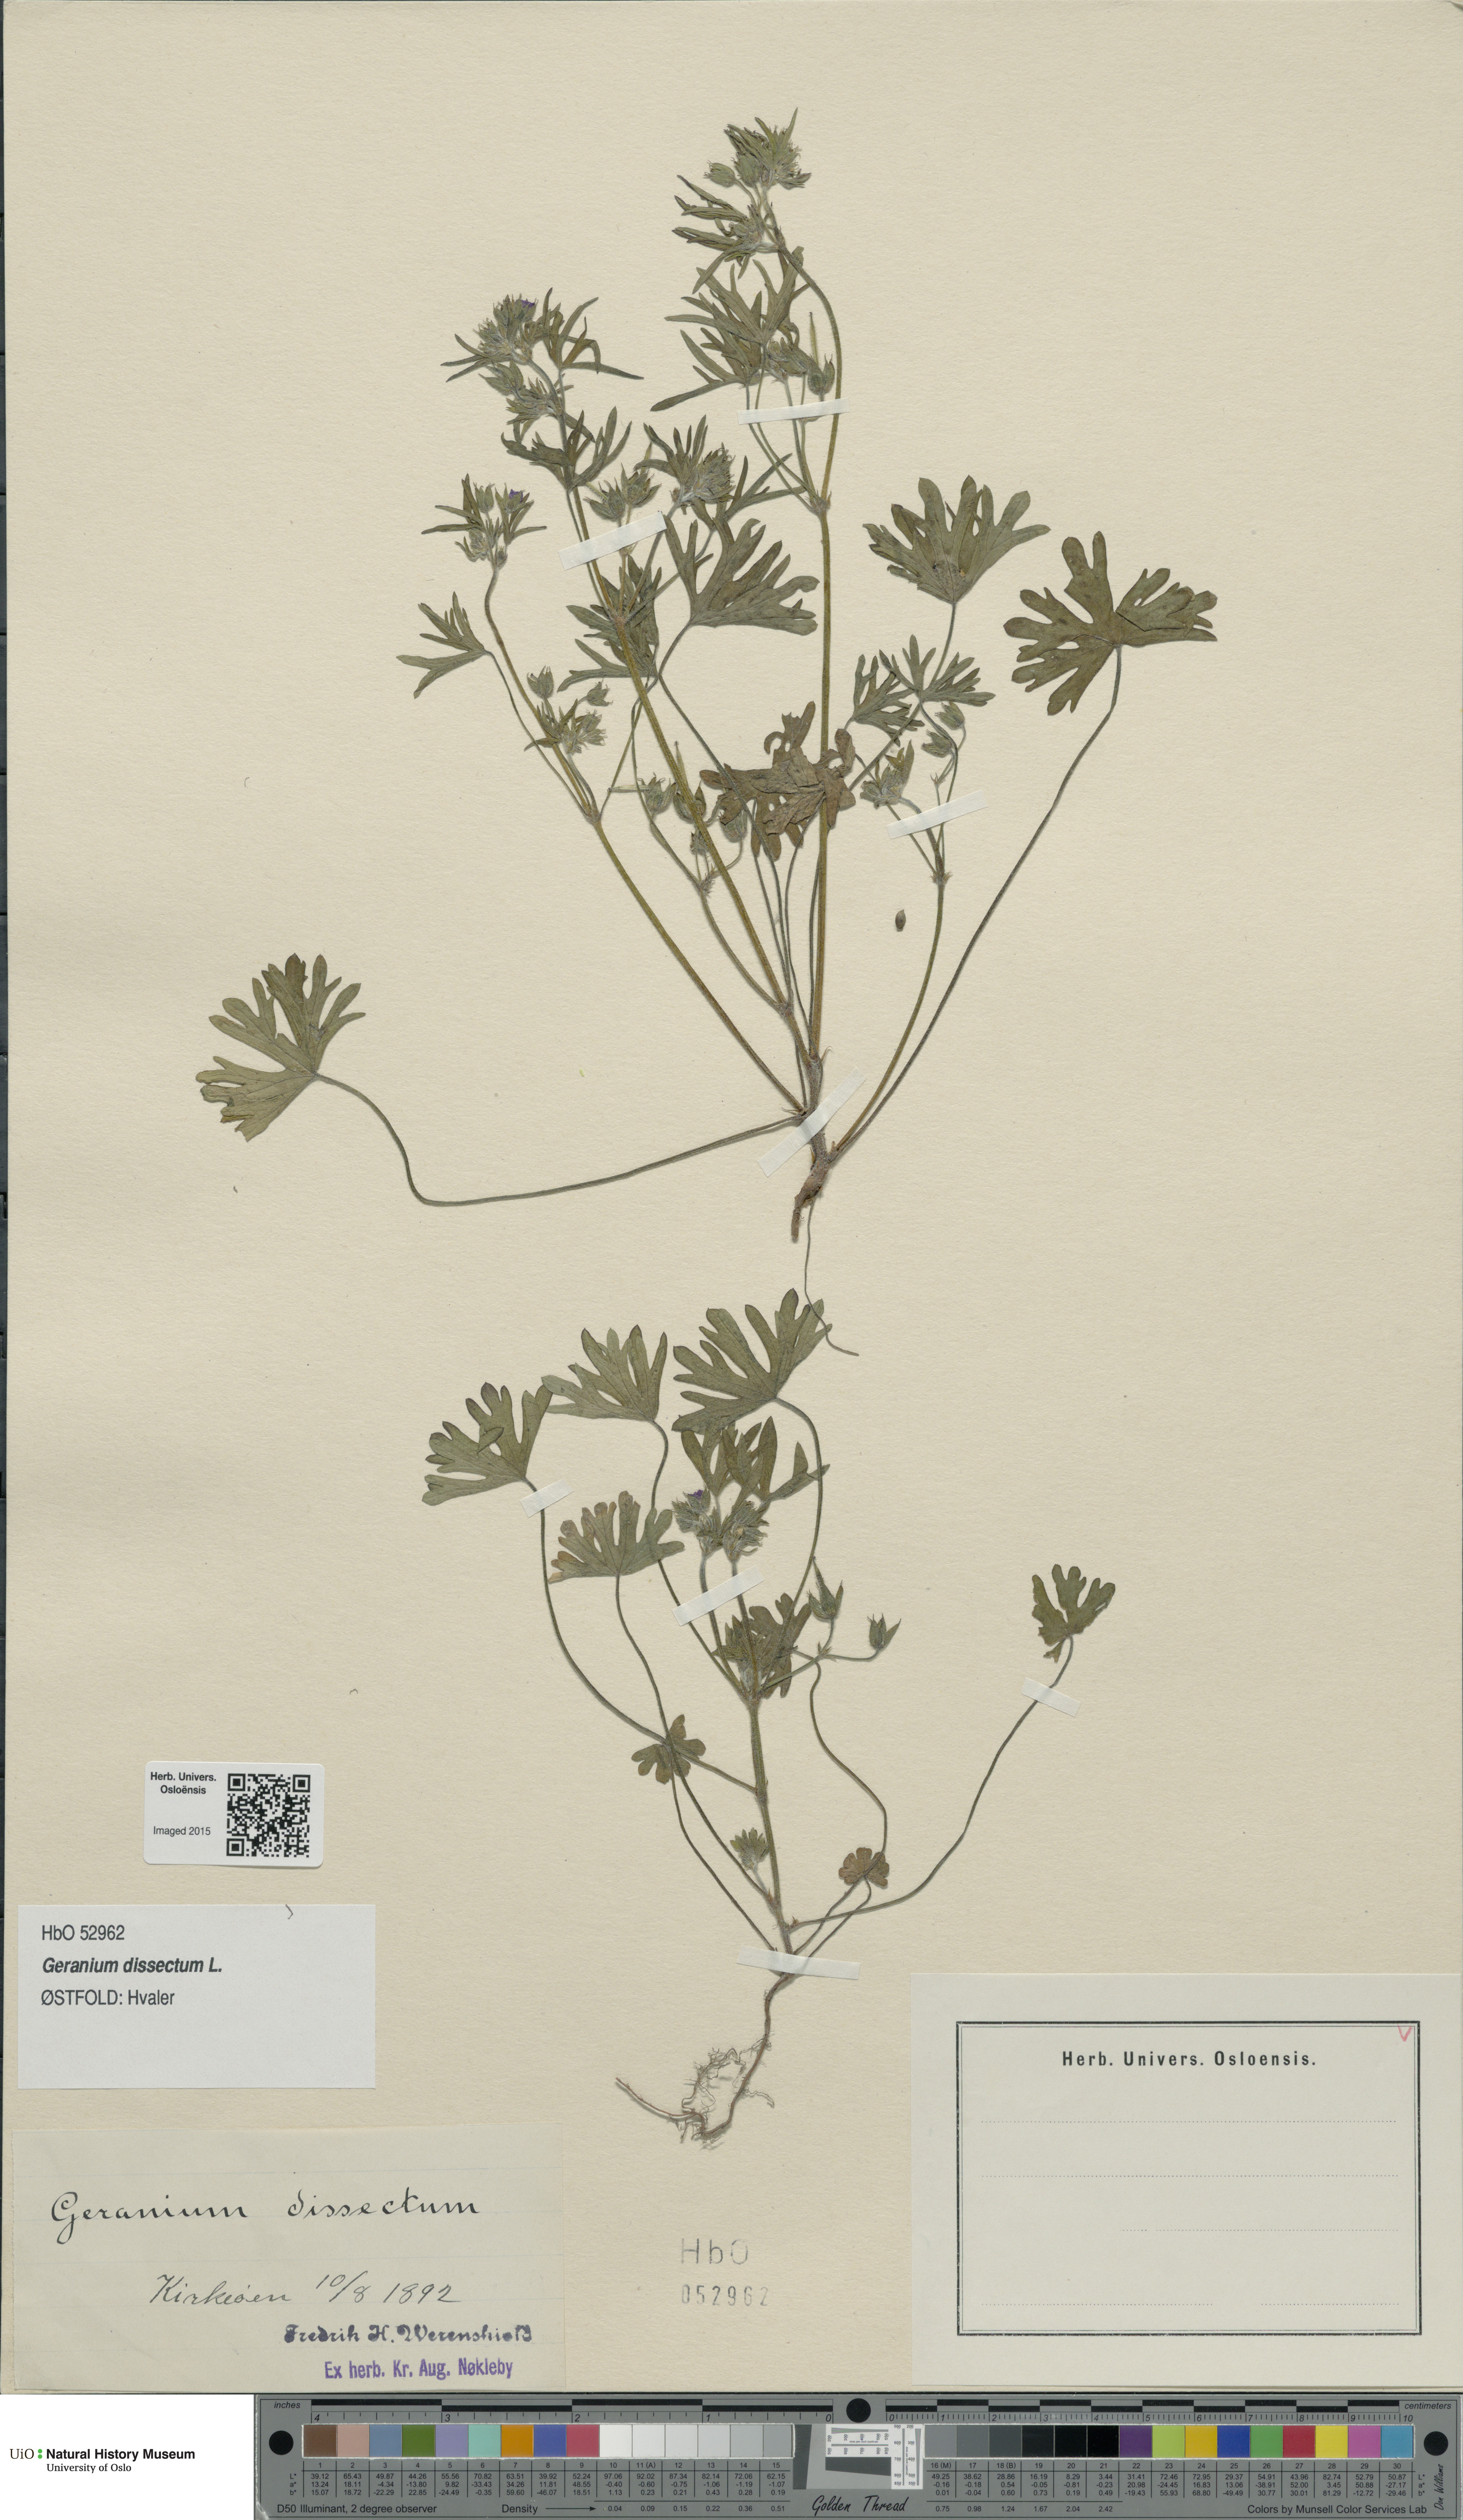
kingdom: Plantae
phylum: Tracheophyta
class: Magnoliopsida
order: Geraniales
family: Geraniaceae
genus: Geranium
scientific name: Geranium dissectum
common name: Cut-leaved crane's-bill
